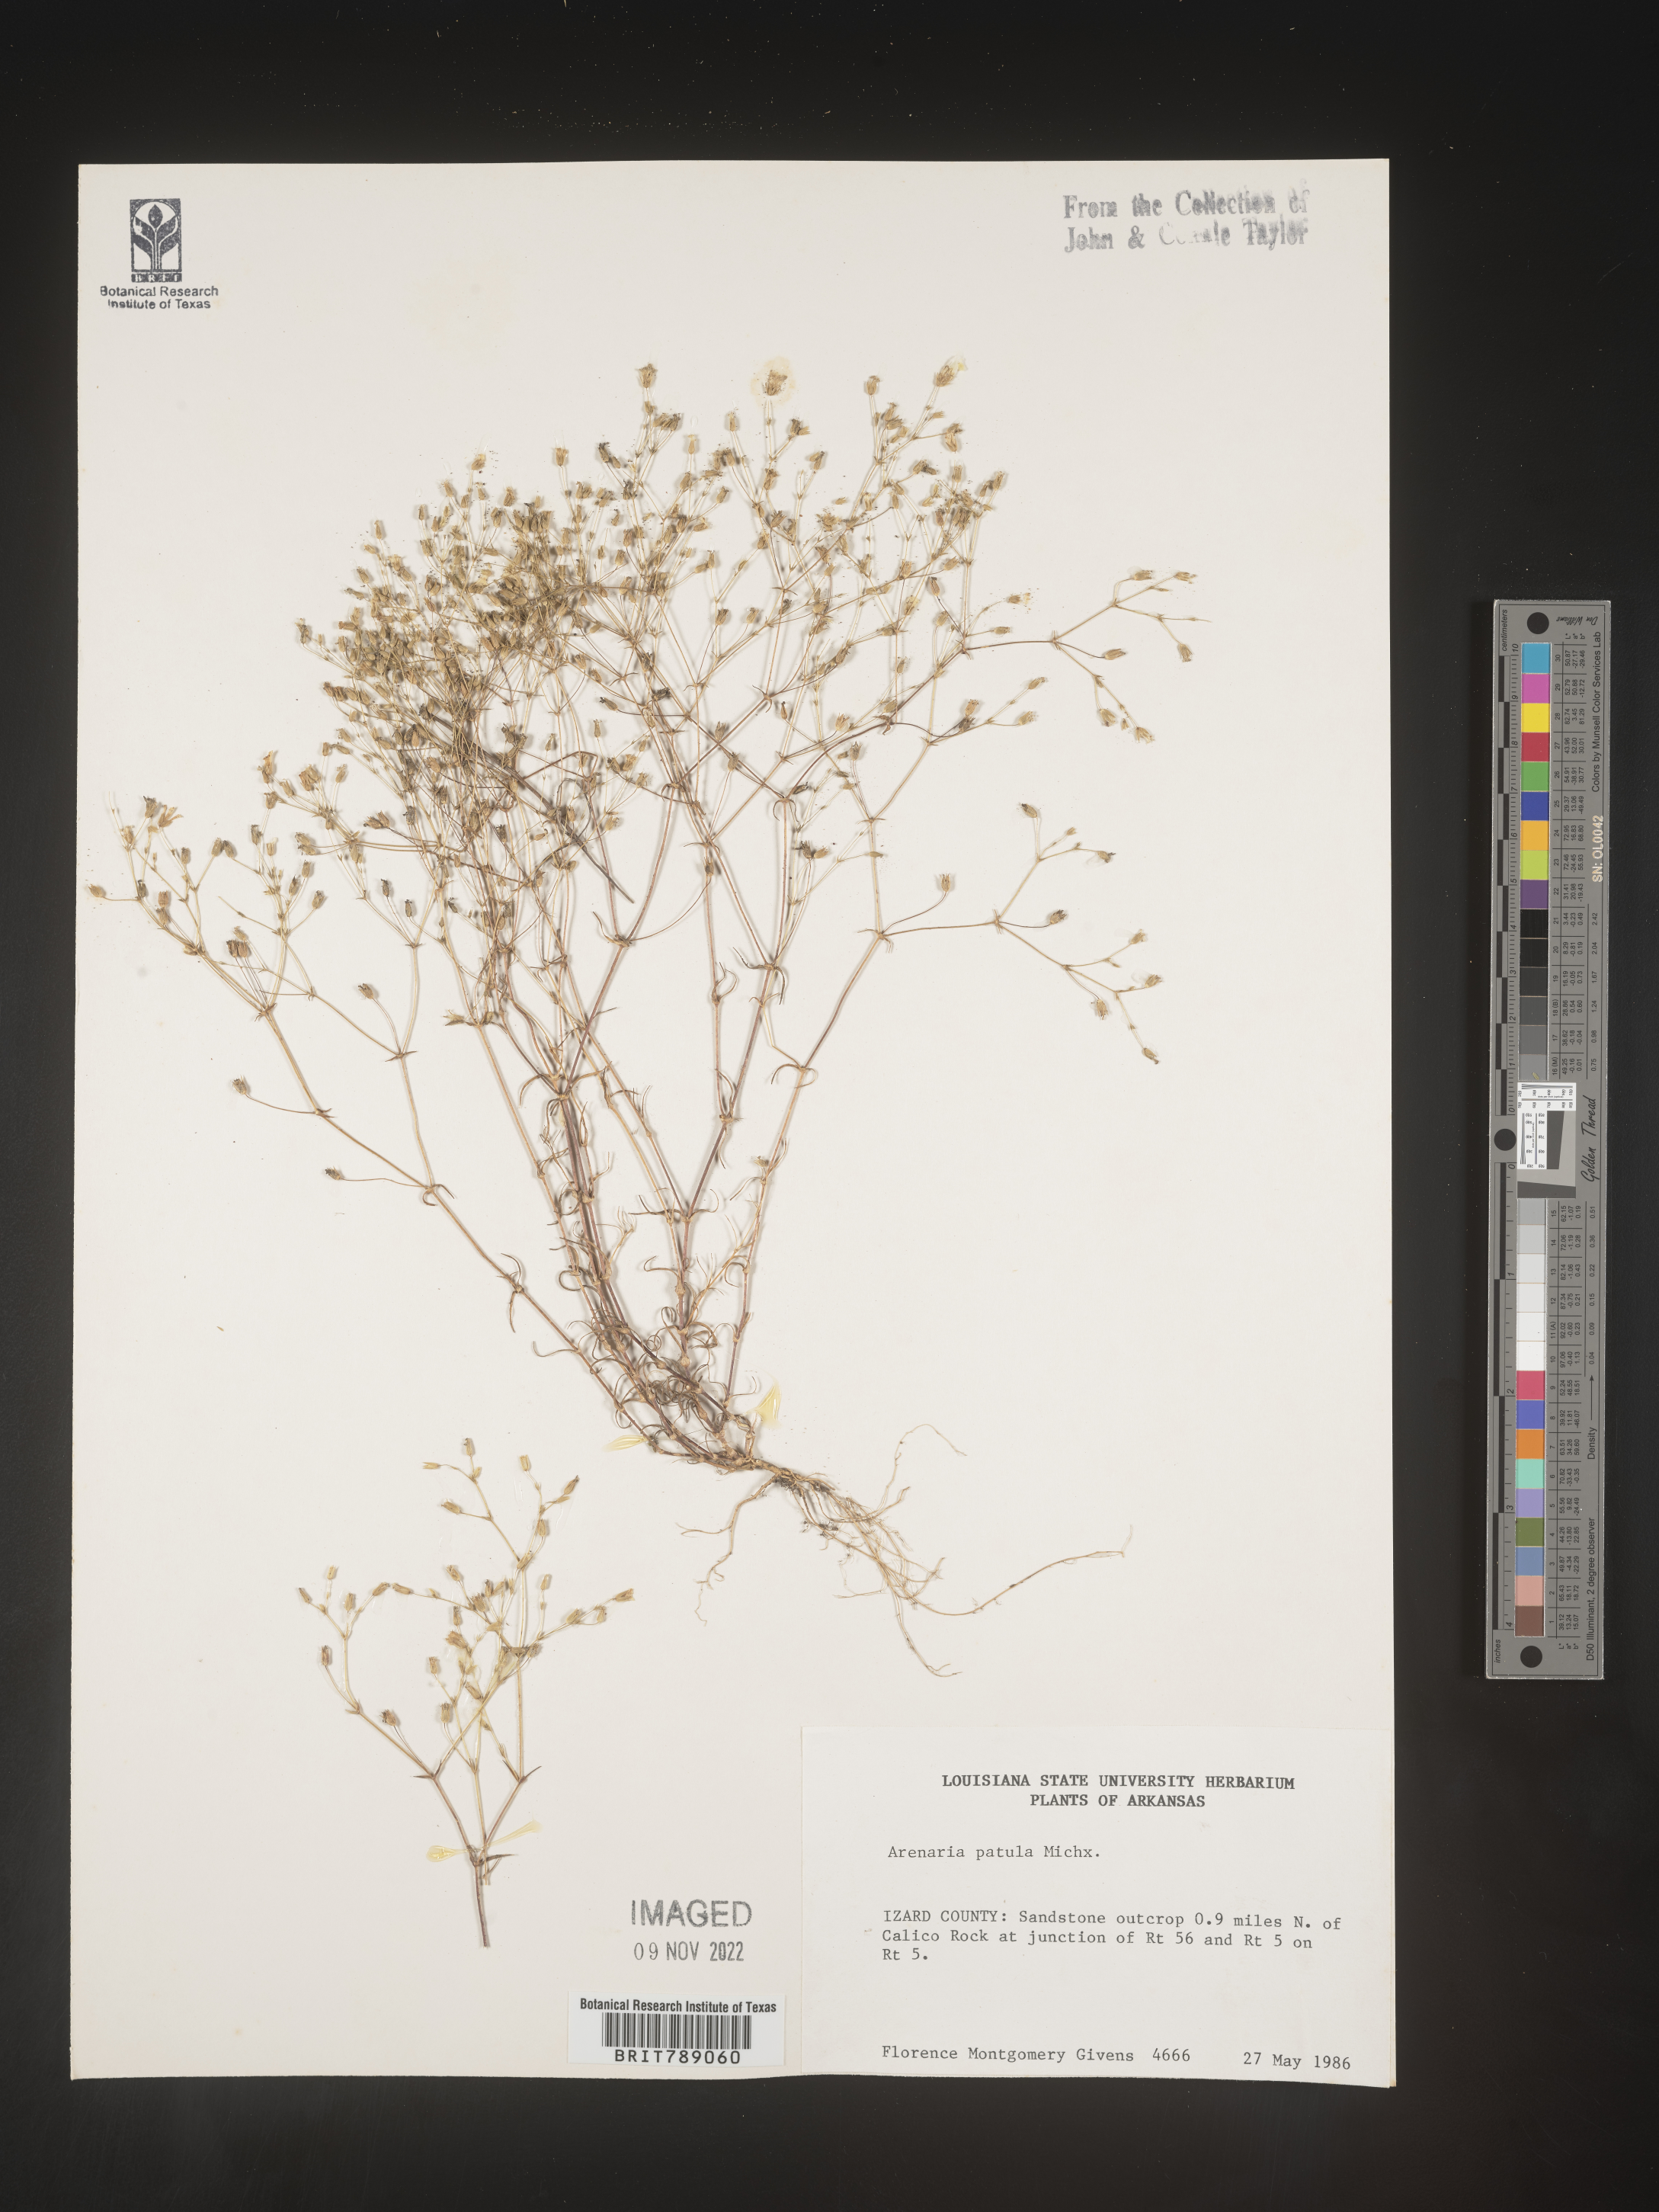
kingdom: Plantae
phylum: Tracheophyta
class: Magnoliopsida
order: Caryophyllales
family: Caryophyllaceae
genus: Mononeuria
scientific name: Mononeuria patula
